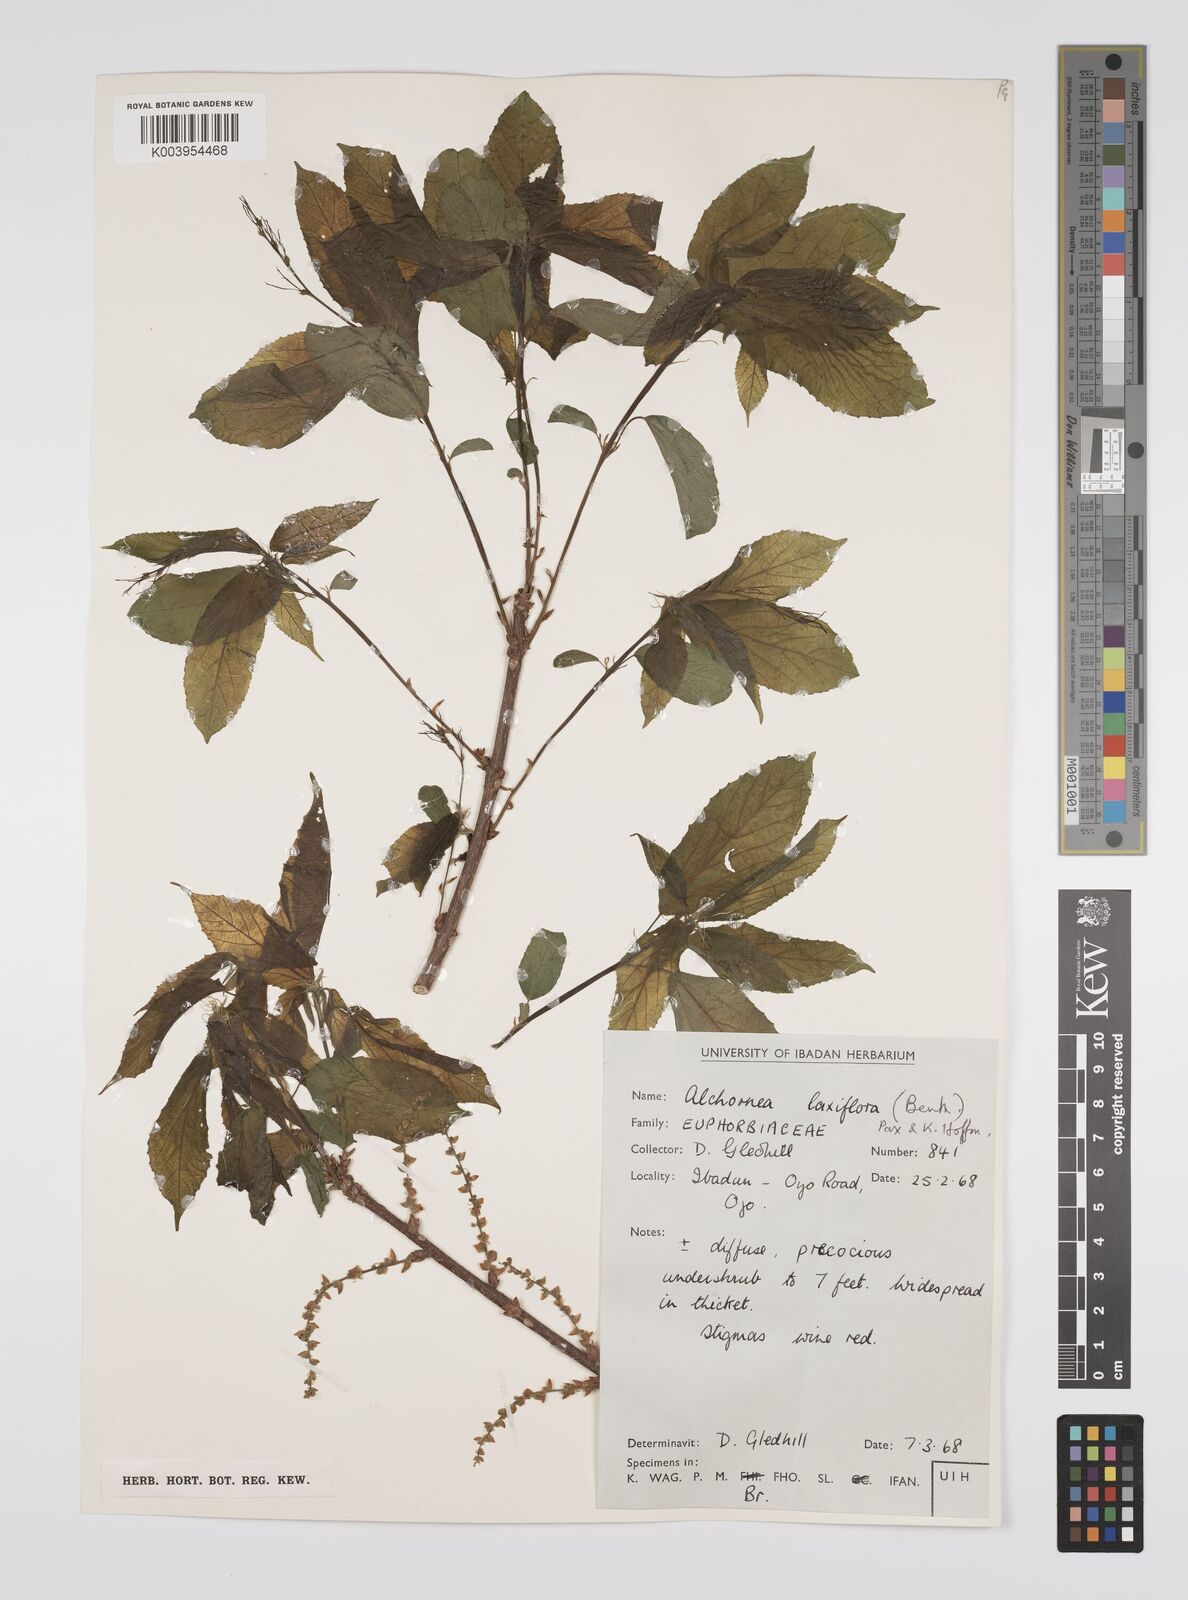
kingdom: Plantae
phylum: Tracheophyta
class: Magnoliopsida
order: Malpighiales
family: Euphorbiaceae
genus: Alchornea
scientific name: Alchornea laxiflora
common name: Lowveld bead-string
